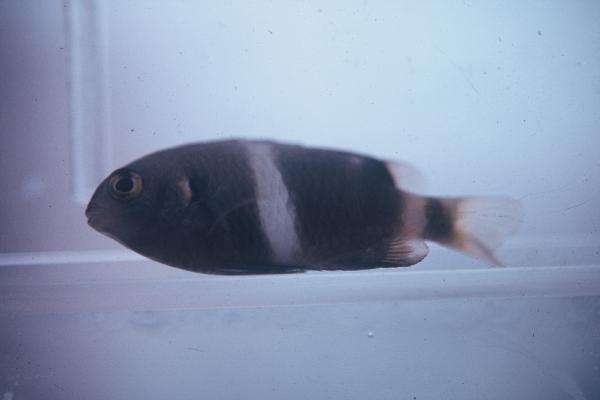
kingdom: Animalia
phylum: Chordata
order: Perciformes
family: Pomacentridae
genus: Chrysiptera
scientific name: Chrysiptera
